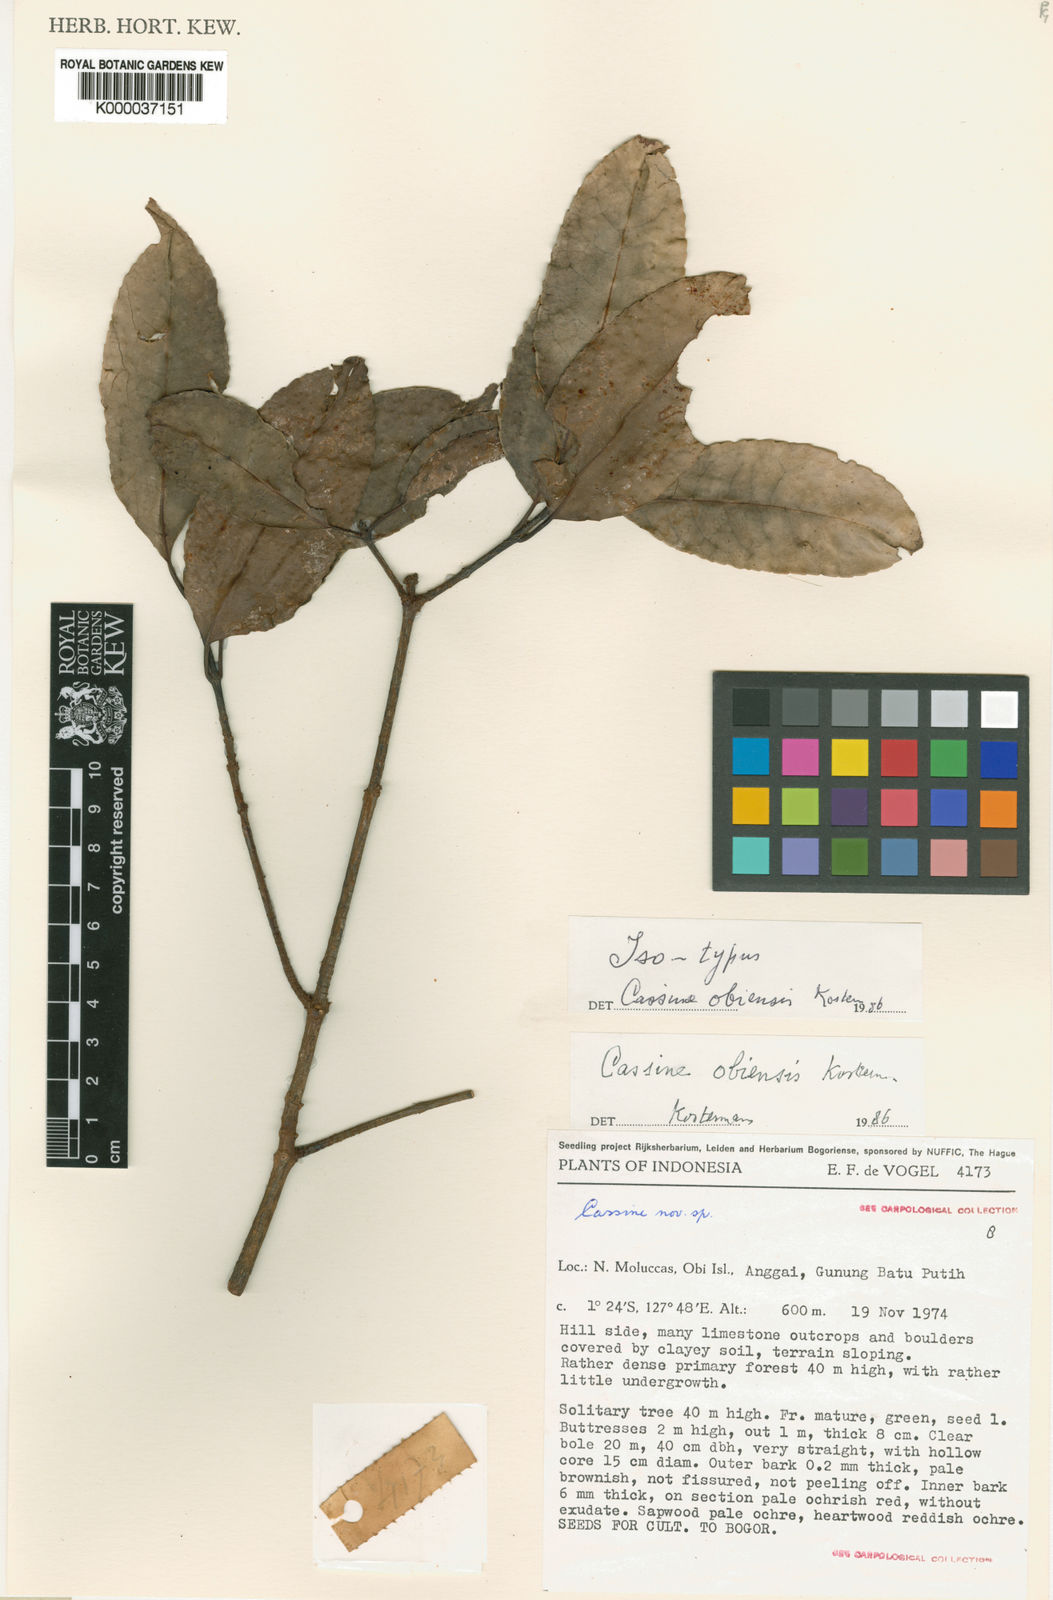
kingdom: Plantae
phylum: Tracheophyta
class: Magnoliopsida
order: Celastrales
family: Celastraceae
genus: Elaeodendron
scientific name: Elaeodendron obiensis
